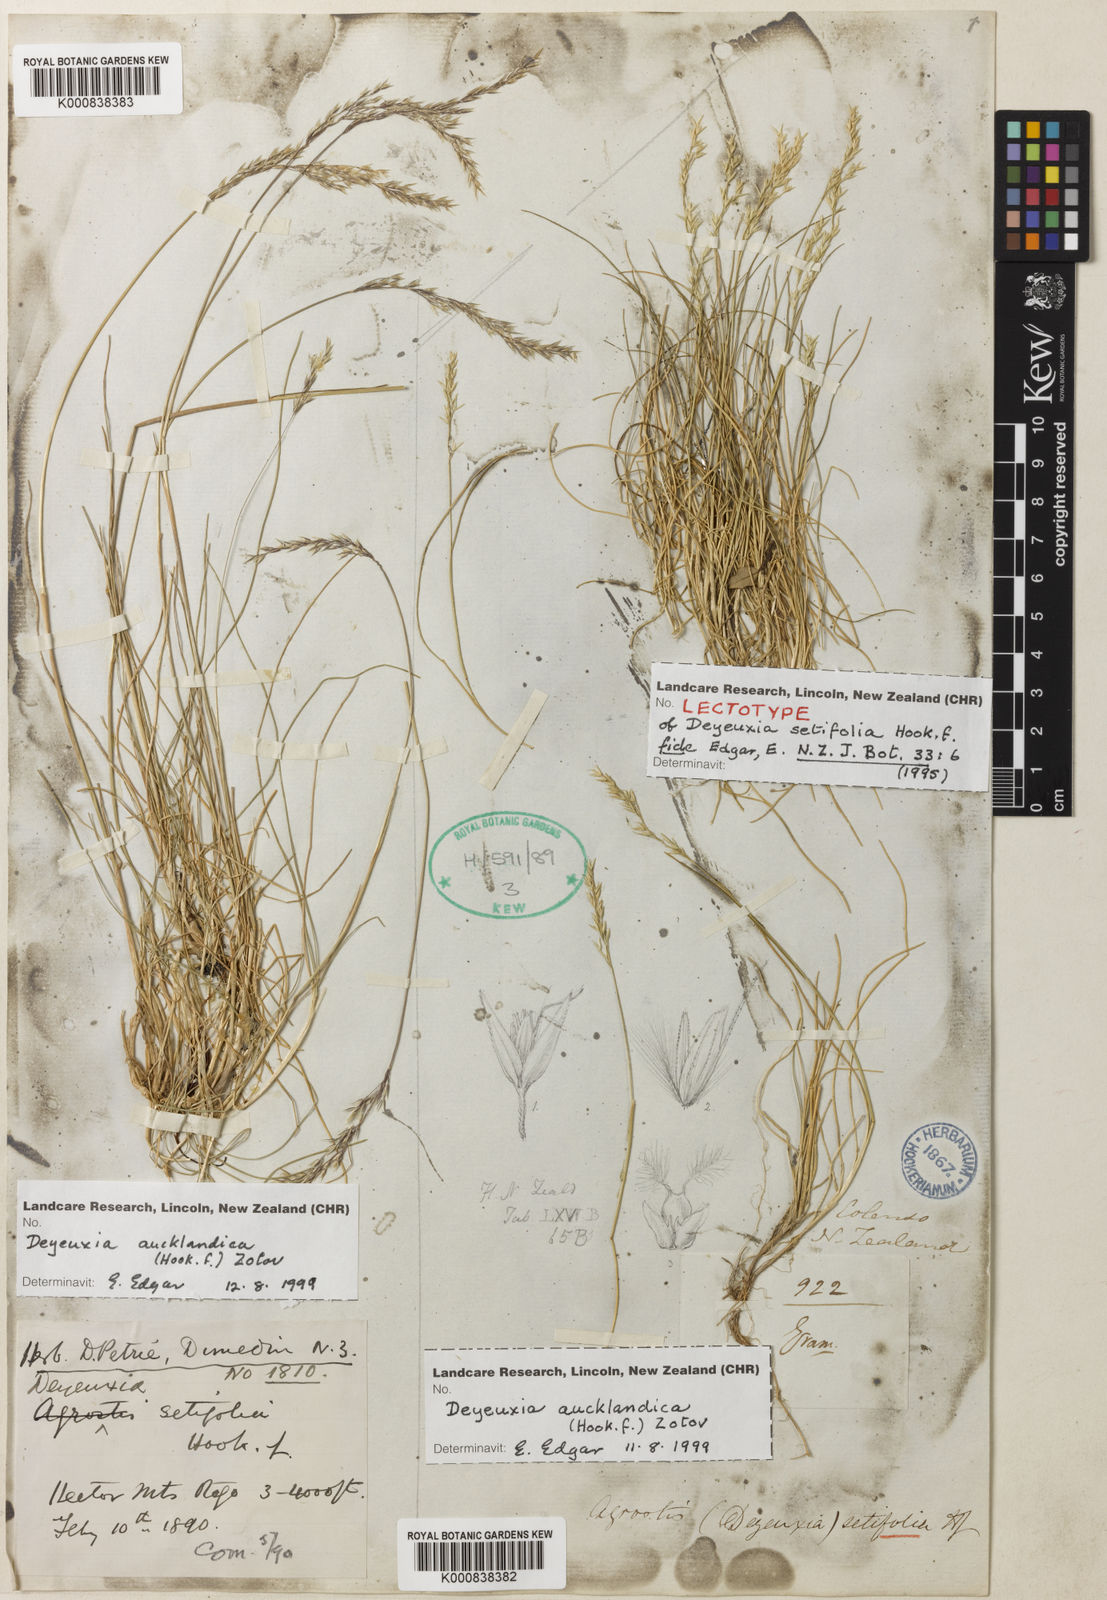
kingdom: Plantae
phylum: Tracheophyta
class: Liliopsida
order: Poales
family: Poaceae
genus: Agrostis
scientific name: Agrostis aucklandica
